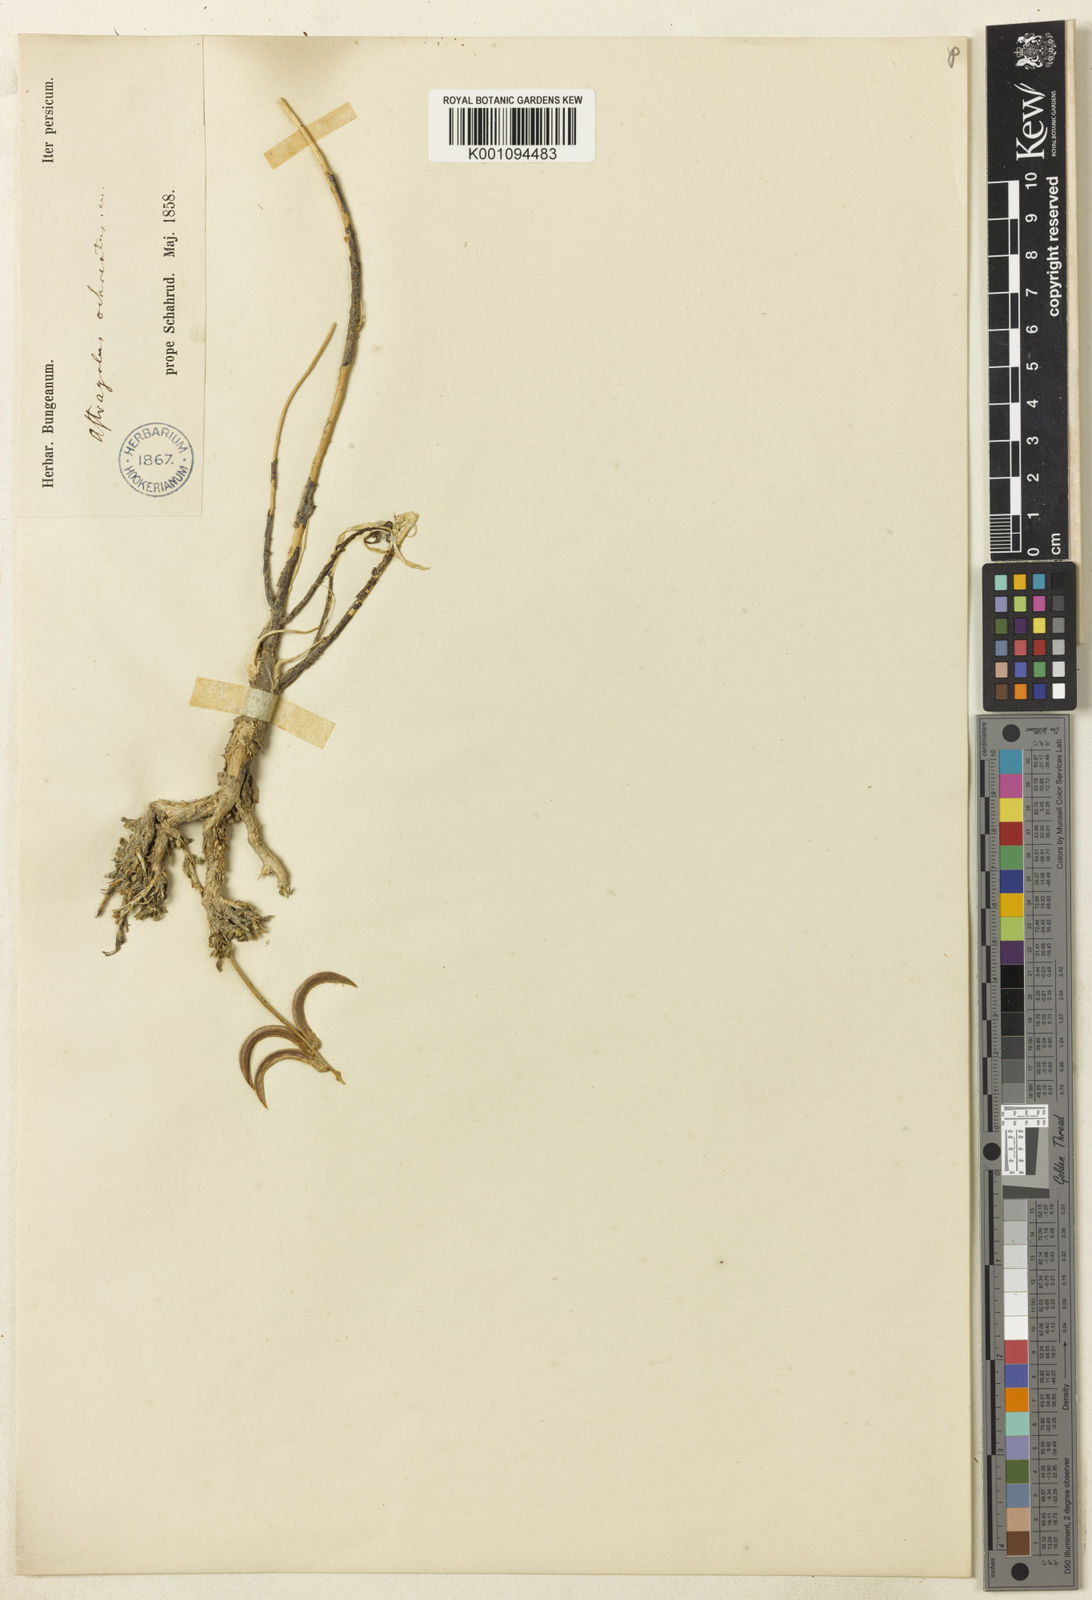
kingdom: Plantae
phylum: Tracheophyta
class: Magnoliopsida
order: Fabales
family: Fabaceae
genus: Astragalus
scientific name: Astragalus
